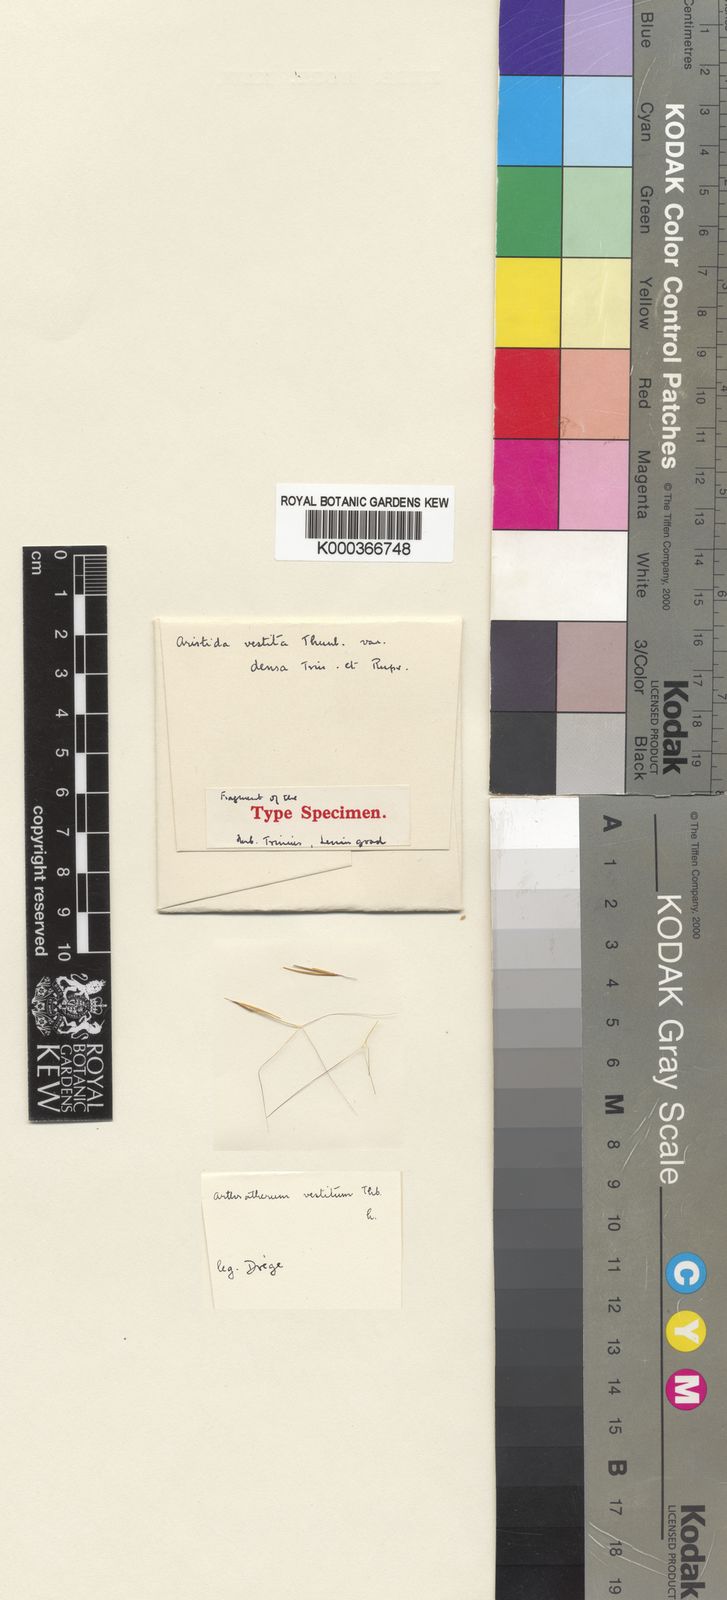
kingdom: Plantae
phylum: Tracheophyta
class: Liliopsida
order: Poales
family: Poaceae
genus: Aristida
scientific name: Aristida diffusa
